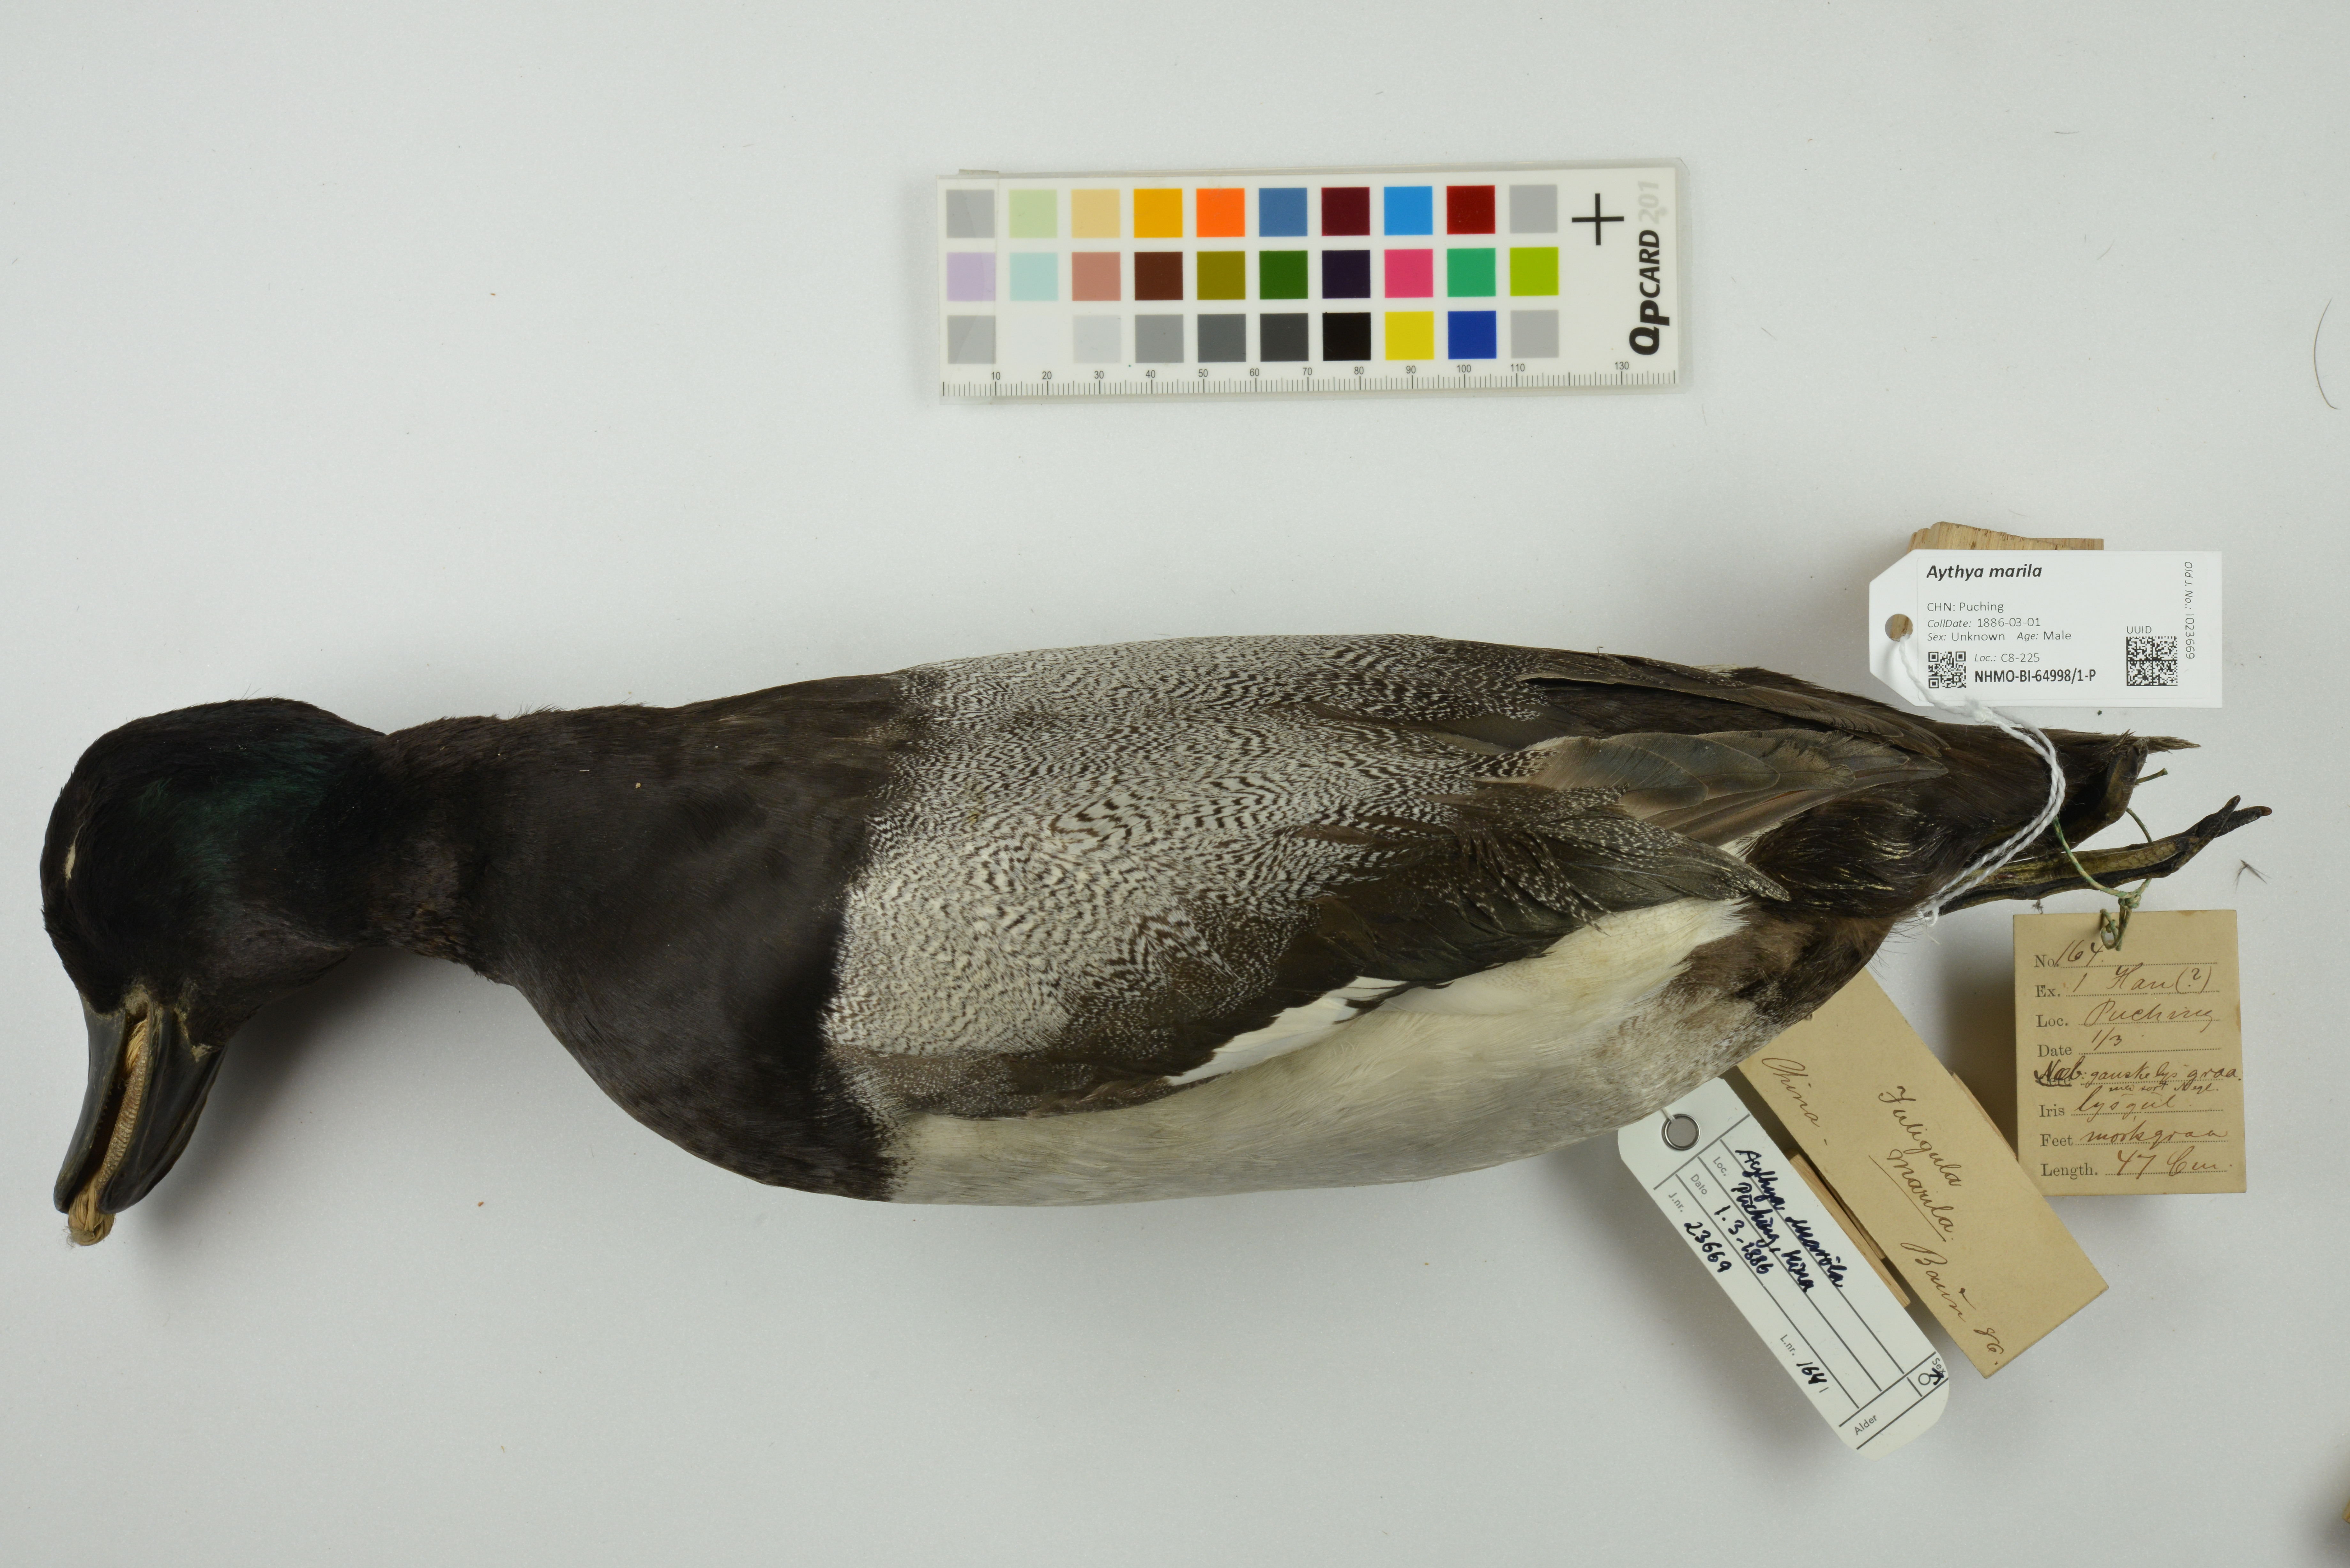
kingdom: Animalia
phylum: Chordata
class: Aves
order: Anseriformes
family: Anatidae
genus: Aythya
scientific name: Aythya marila
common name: Greater scaup
